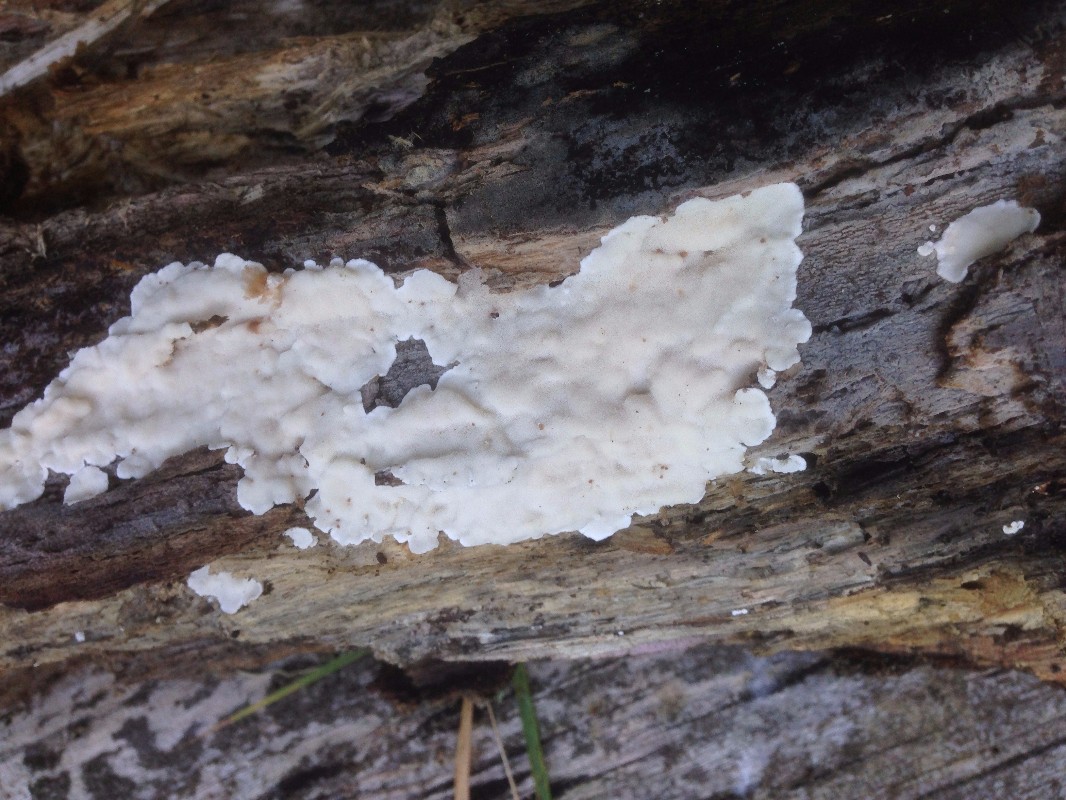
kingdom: Fungi
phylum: Basidiomycota
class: Agaricomycetes
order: Polyporales
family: Steccherinaceae
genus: Antrodiella
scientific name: Antrodiella faginea
